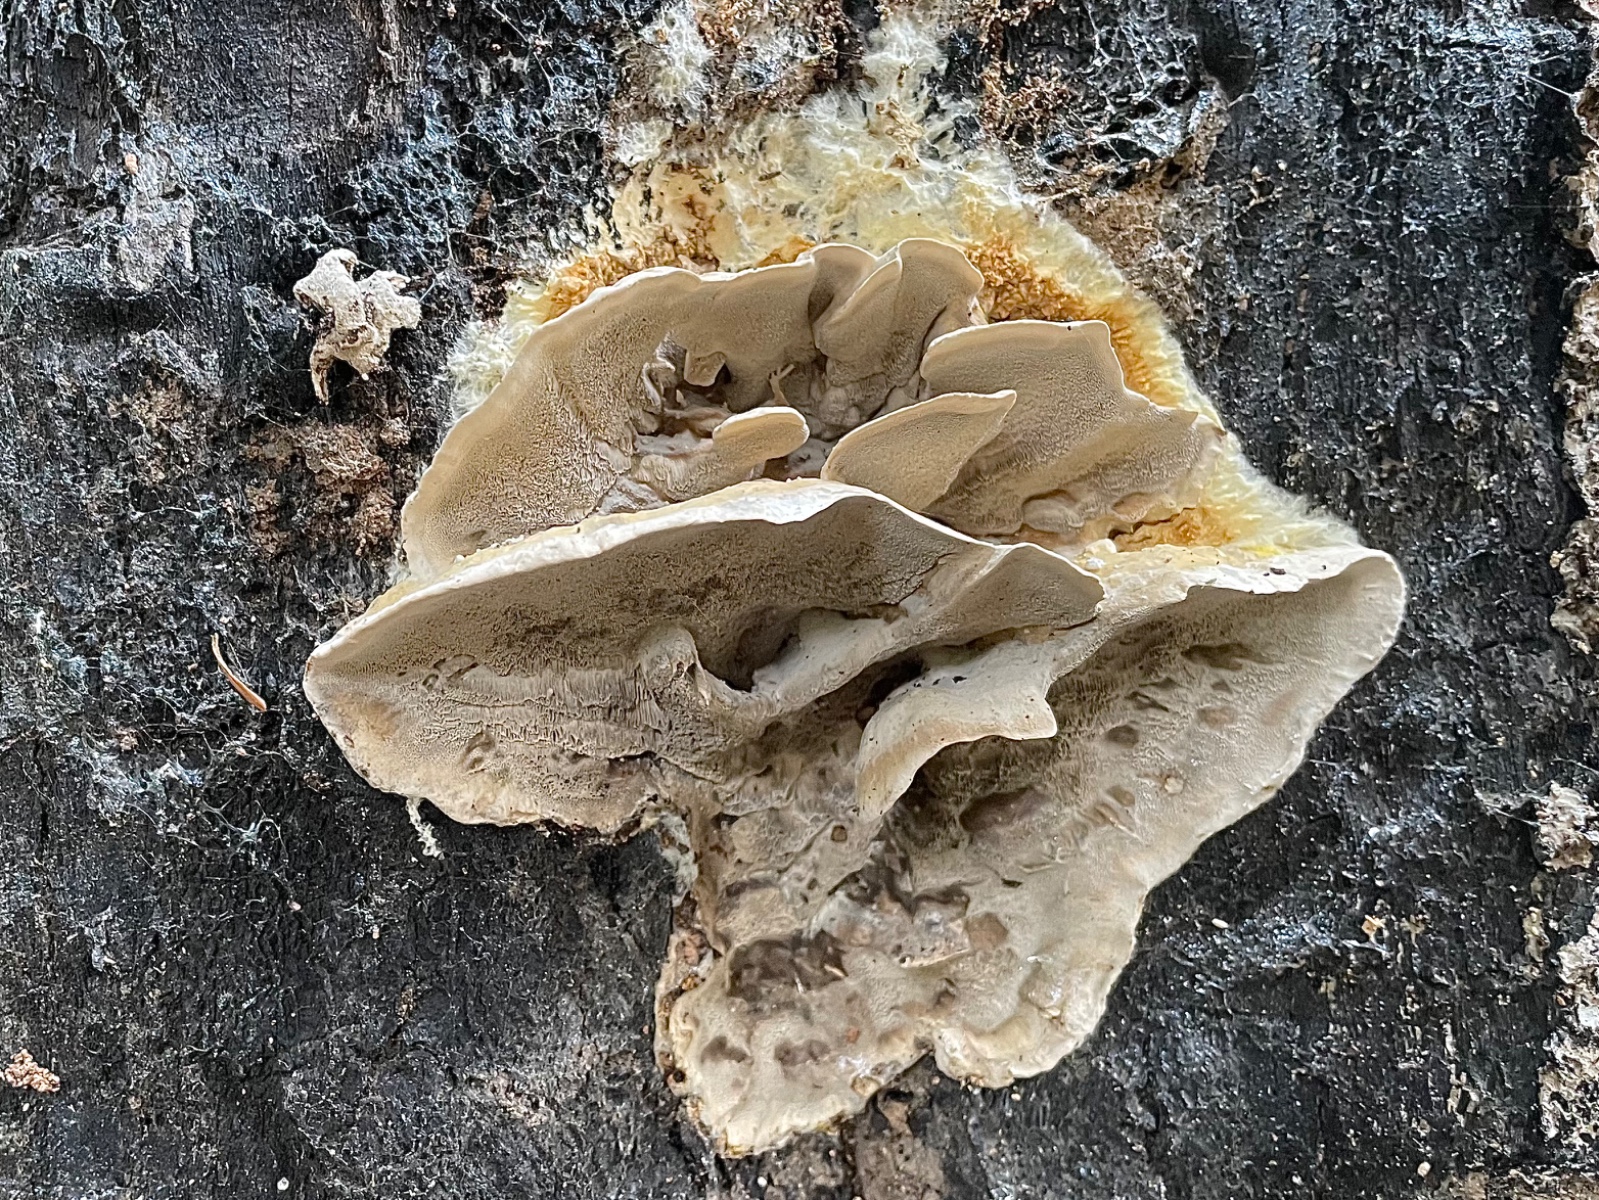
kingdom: Fungi
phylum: Basidiomycota
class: Agaricomycetes
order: Polyporales
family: Phanerochaetaceae
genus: Bjerkandera
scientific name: Bjerkandera adusta
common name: sveden sodporesvamp
